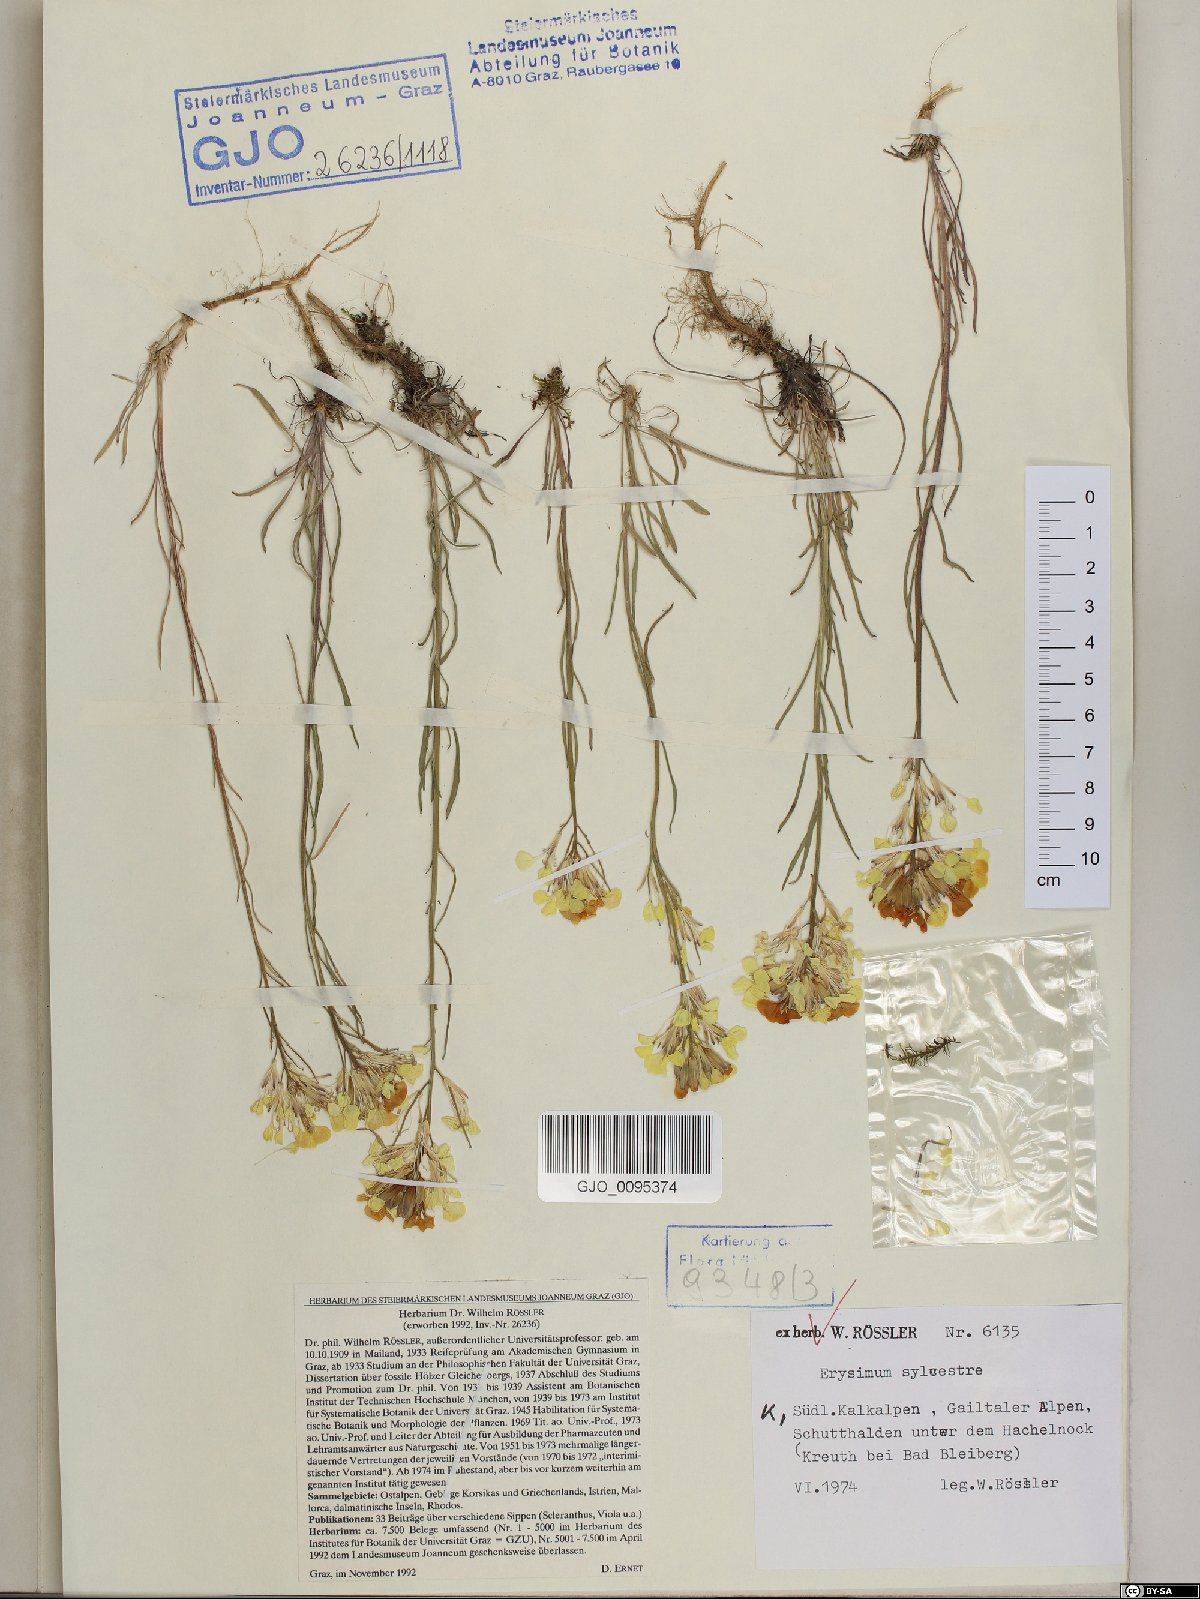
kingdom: Plantae
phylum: Tracheophyta
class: Magnoliopsida
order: Brassicales
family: Brassicaceae
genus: Erysimum
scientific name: Erysimum sylvestre
